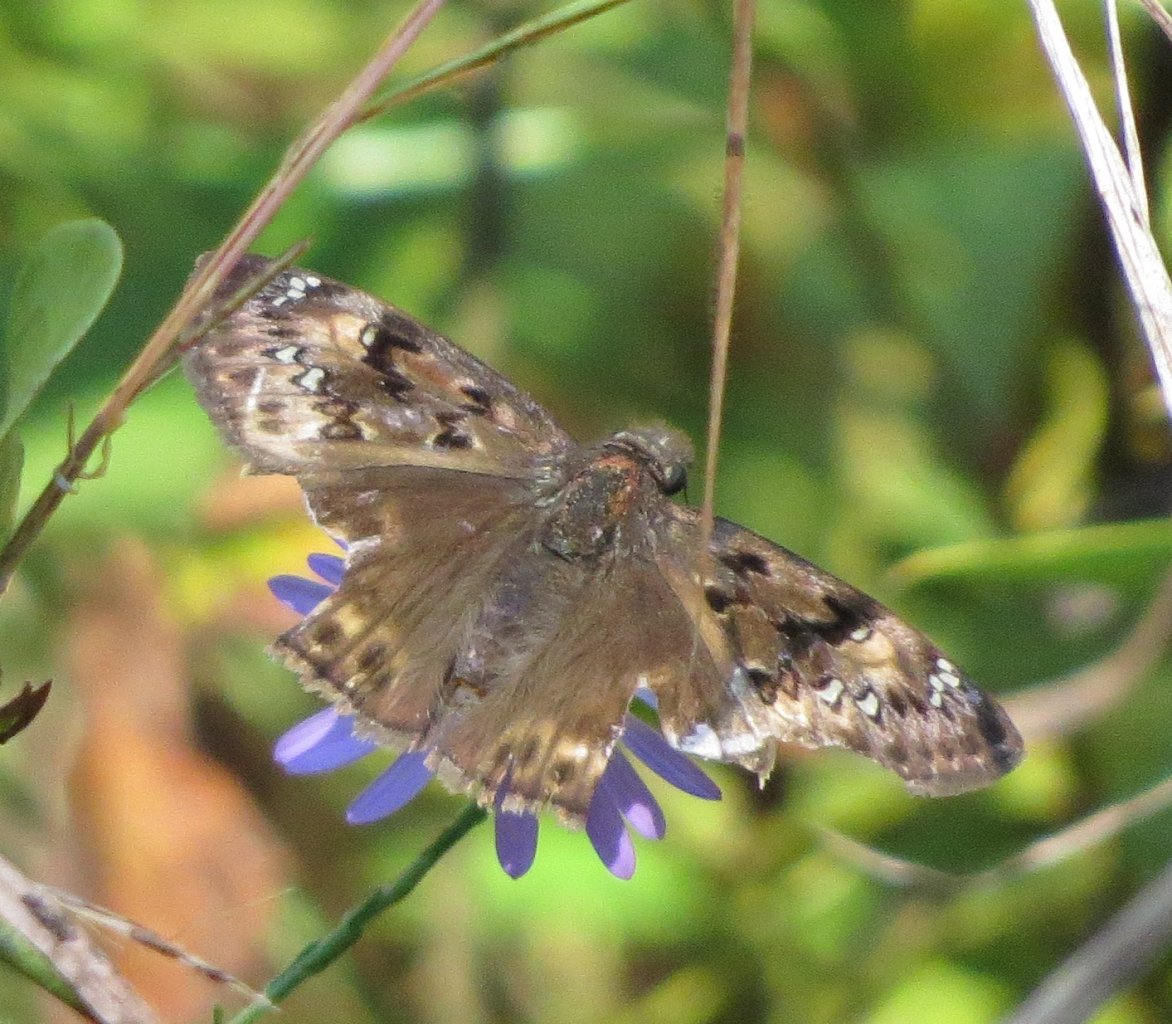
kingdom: Animalia
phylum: Arthropoda
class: Insecta
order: Lepidoptera
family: Hesperiidae
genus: Gesta
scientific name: Gesta
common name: Horace's Duskywing
